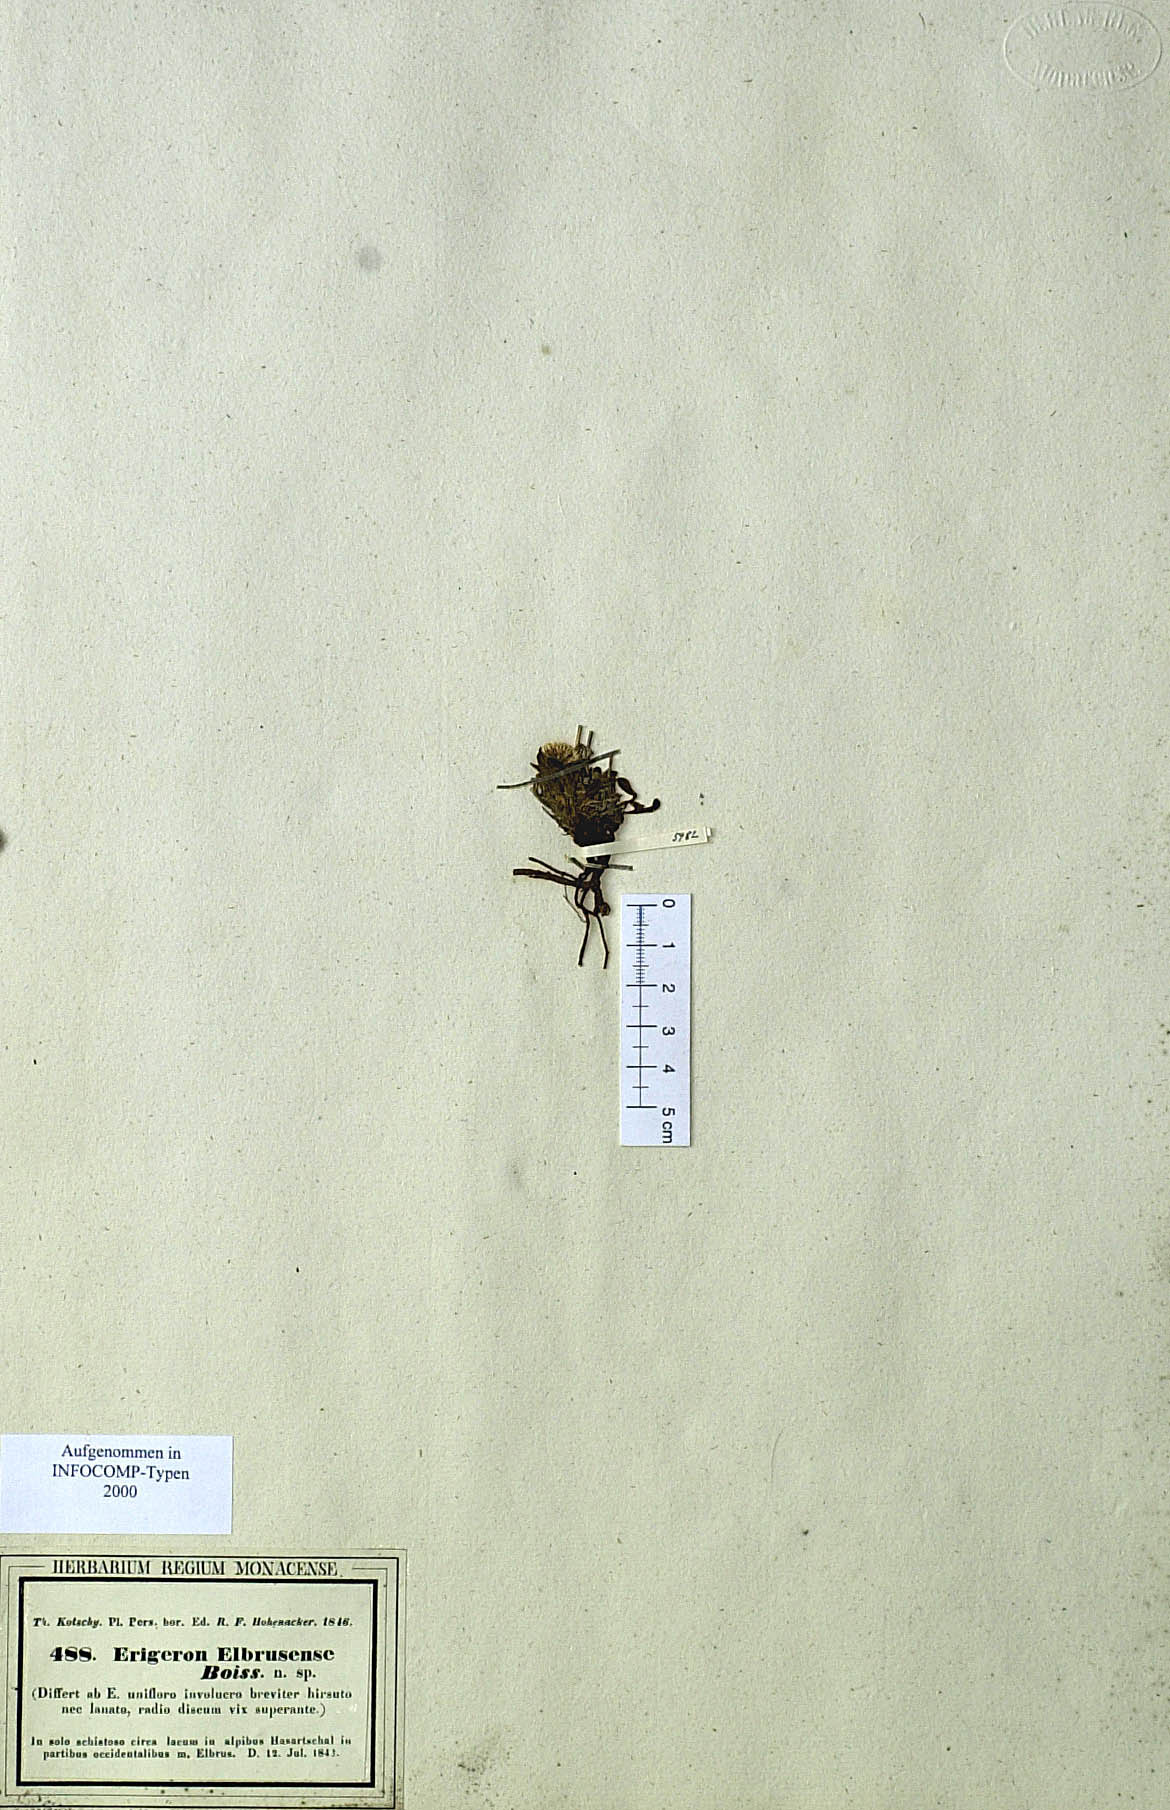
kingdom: Plantae
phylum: Tracheophyta
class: Magnoliopsida
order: Asterales
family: Asteraceae
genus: Erigeron
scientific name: Erigeron elbrusensis
